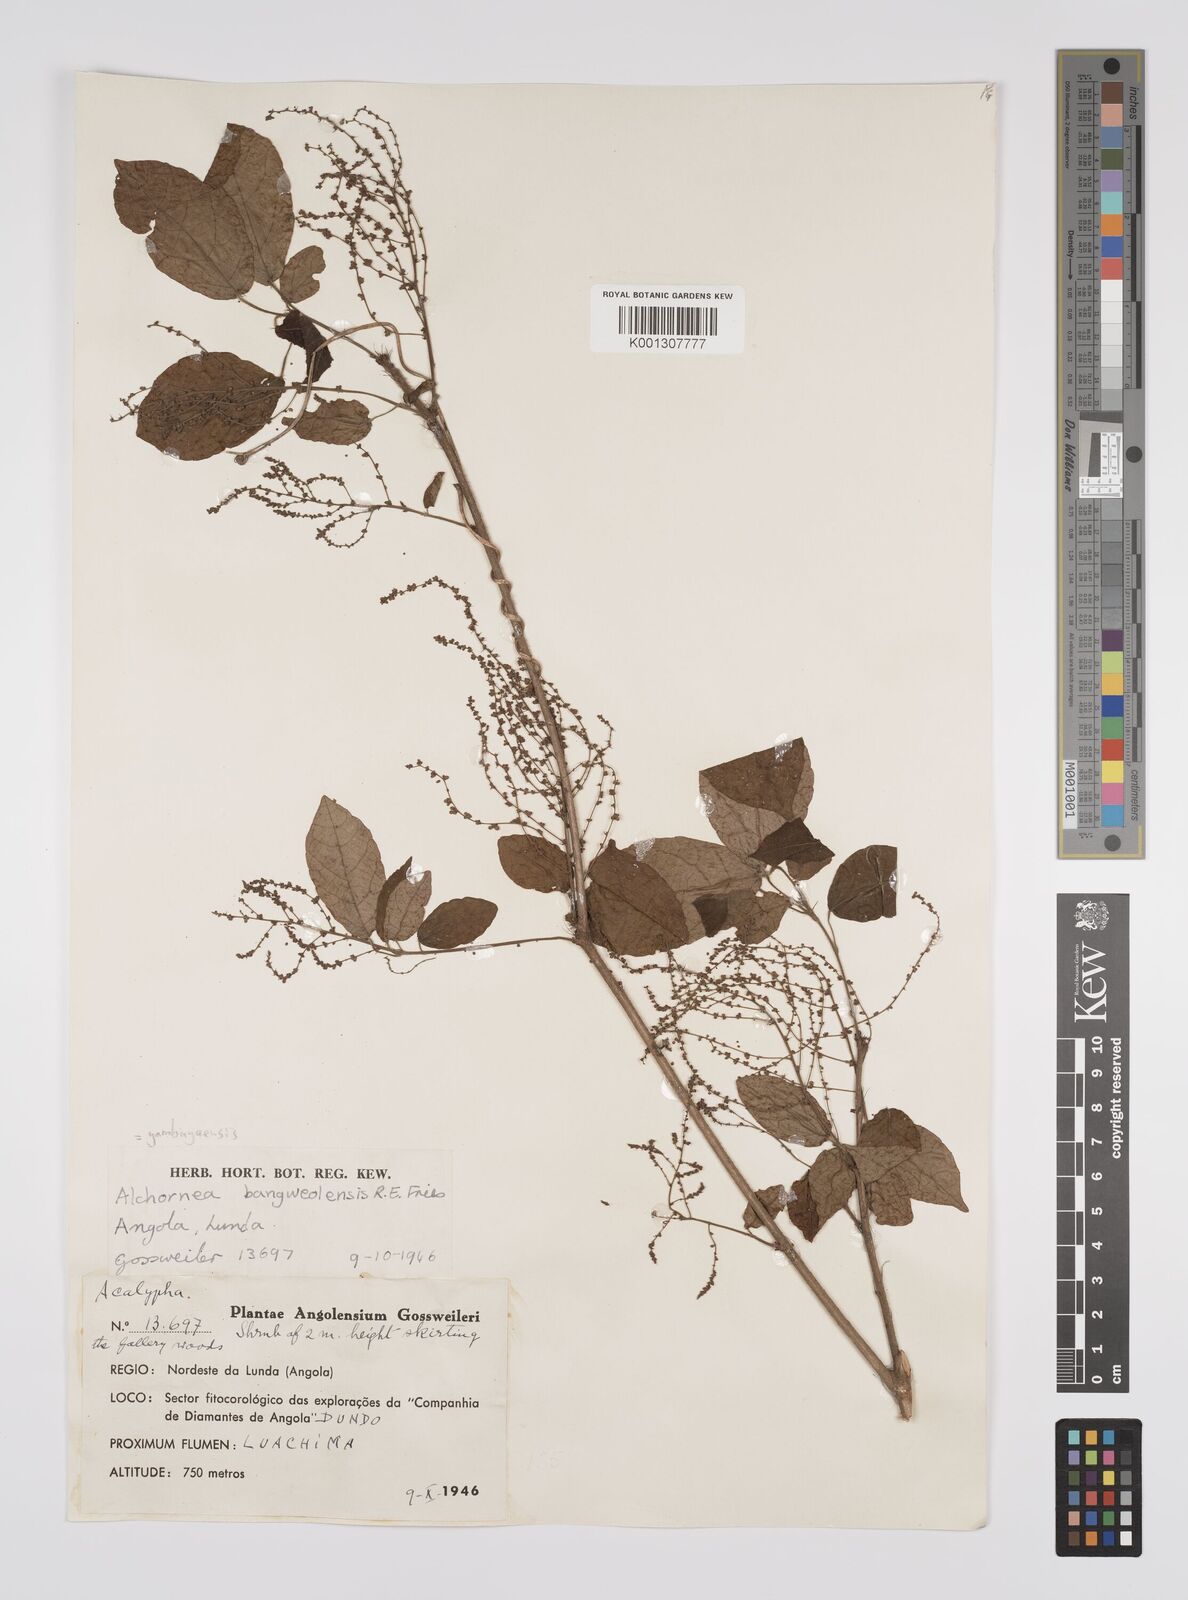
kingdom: Plantae
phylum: Tracheophyta
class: Magnoliopsida
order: Malpighiales
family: Euphorbiaceae
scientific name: Euphorbiaceae
